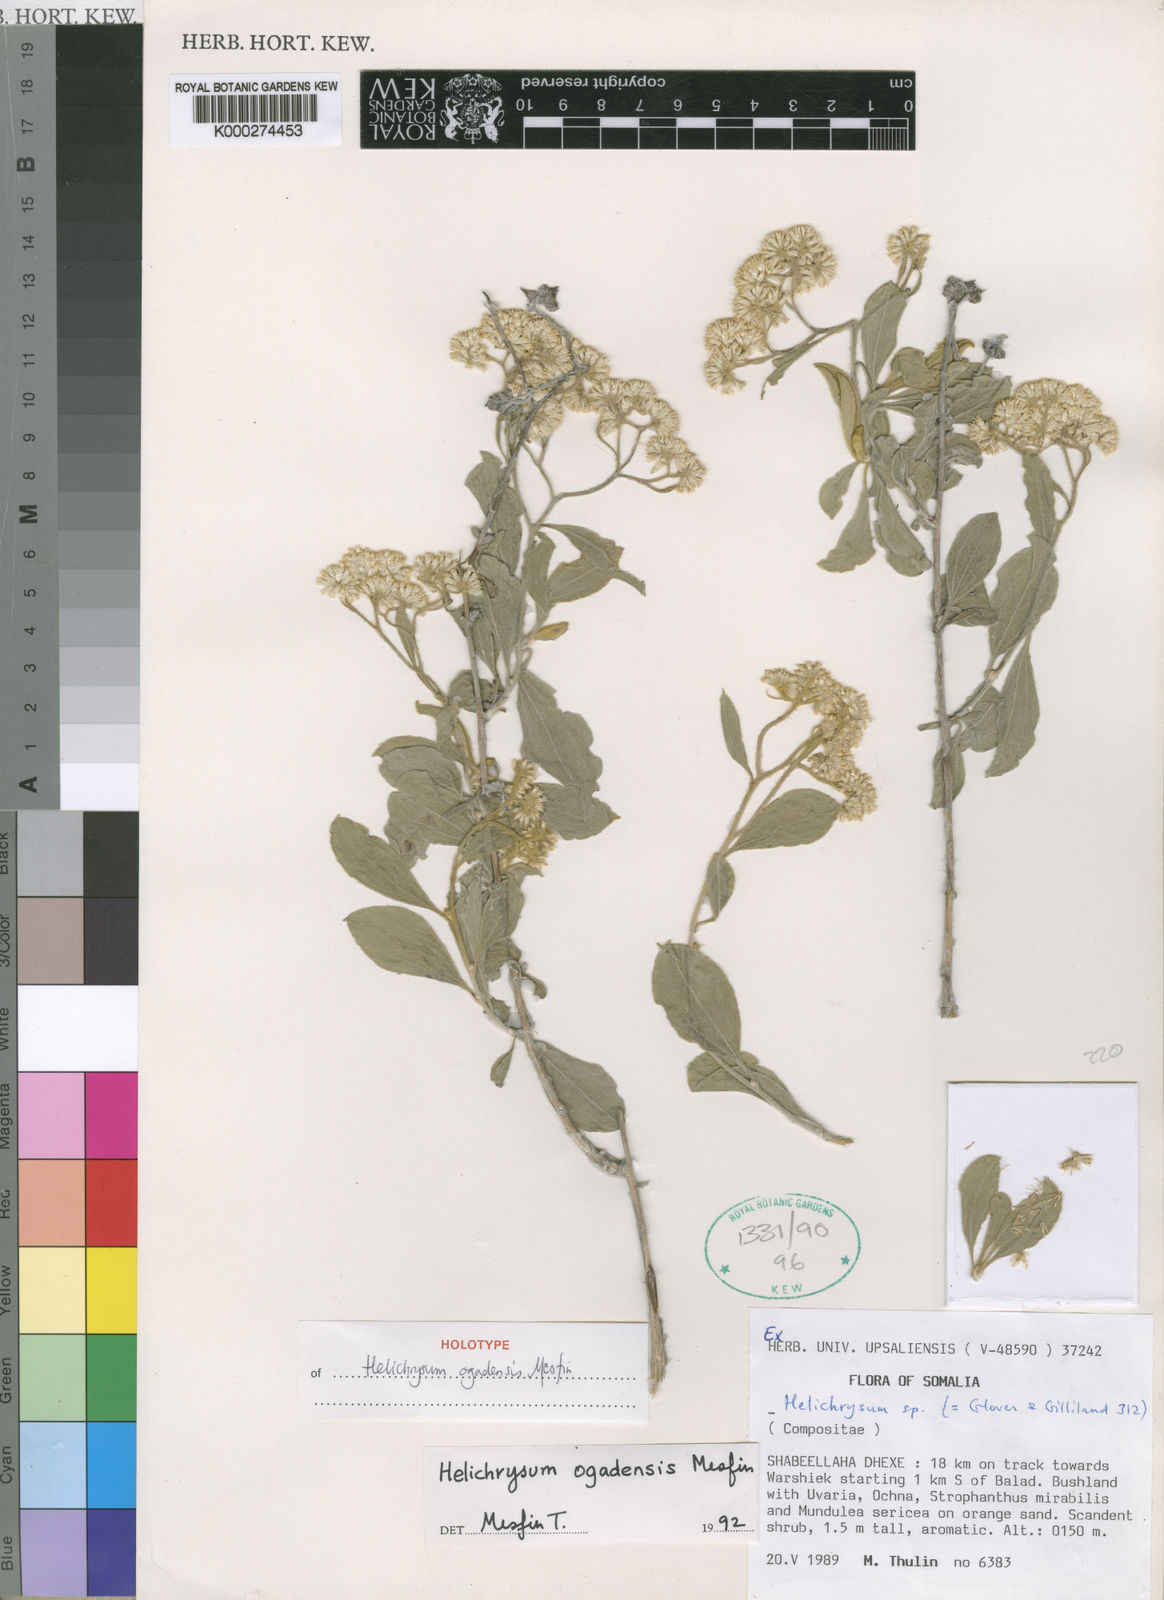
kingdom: Plantae
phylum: Tracheophyta
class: Magnoliopsida
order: Asterales
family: Asteraceae
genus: Helichrysum
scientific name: Helichrysum
